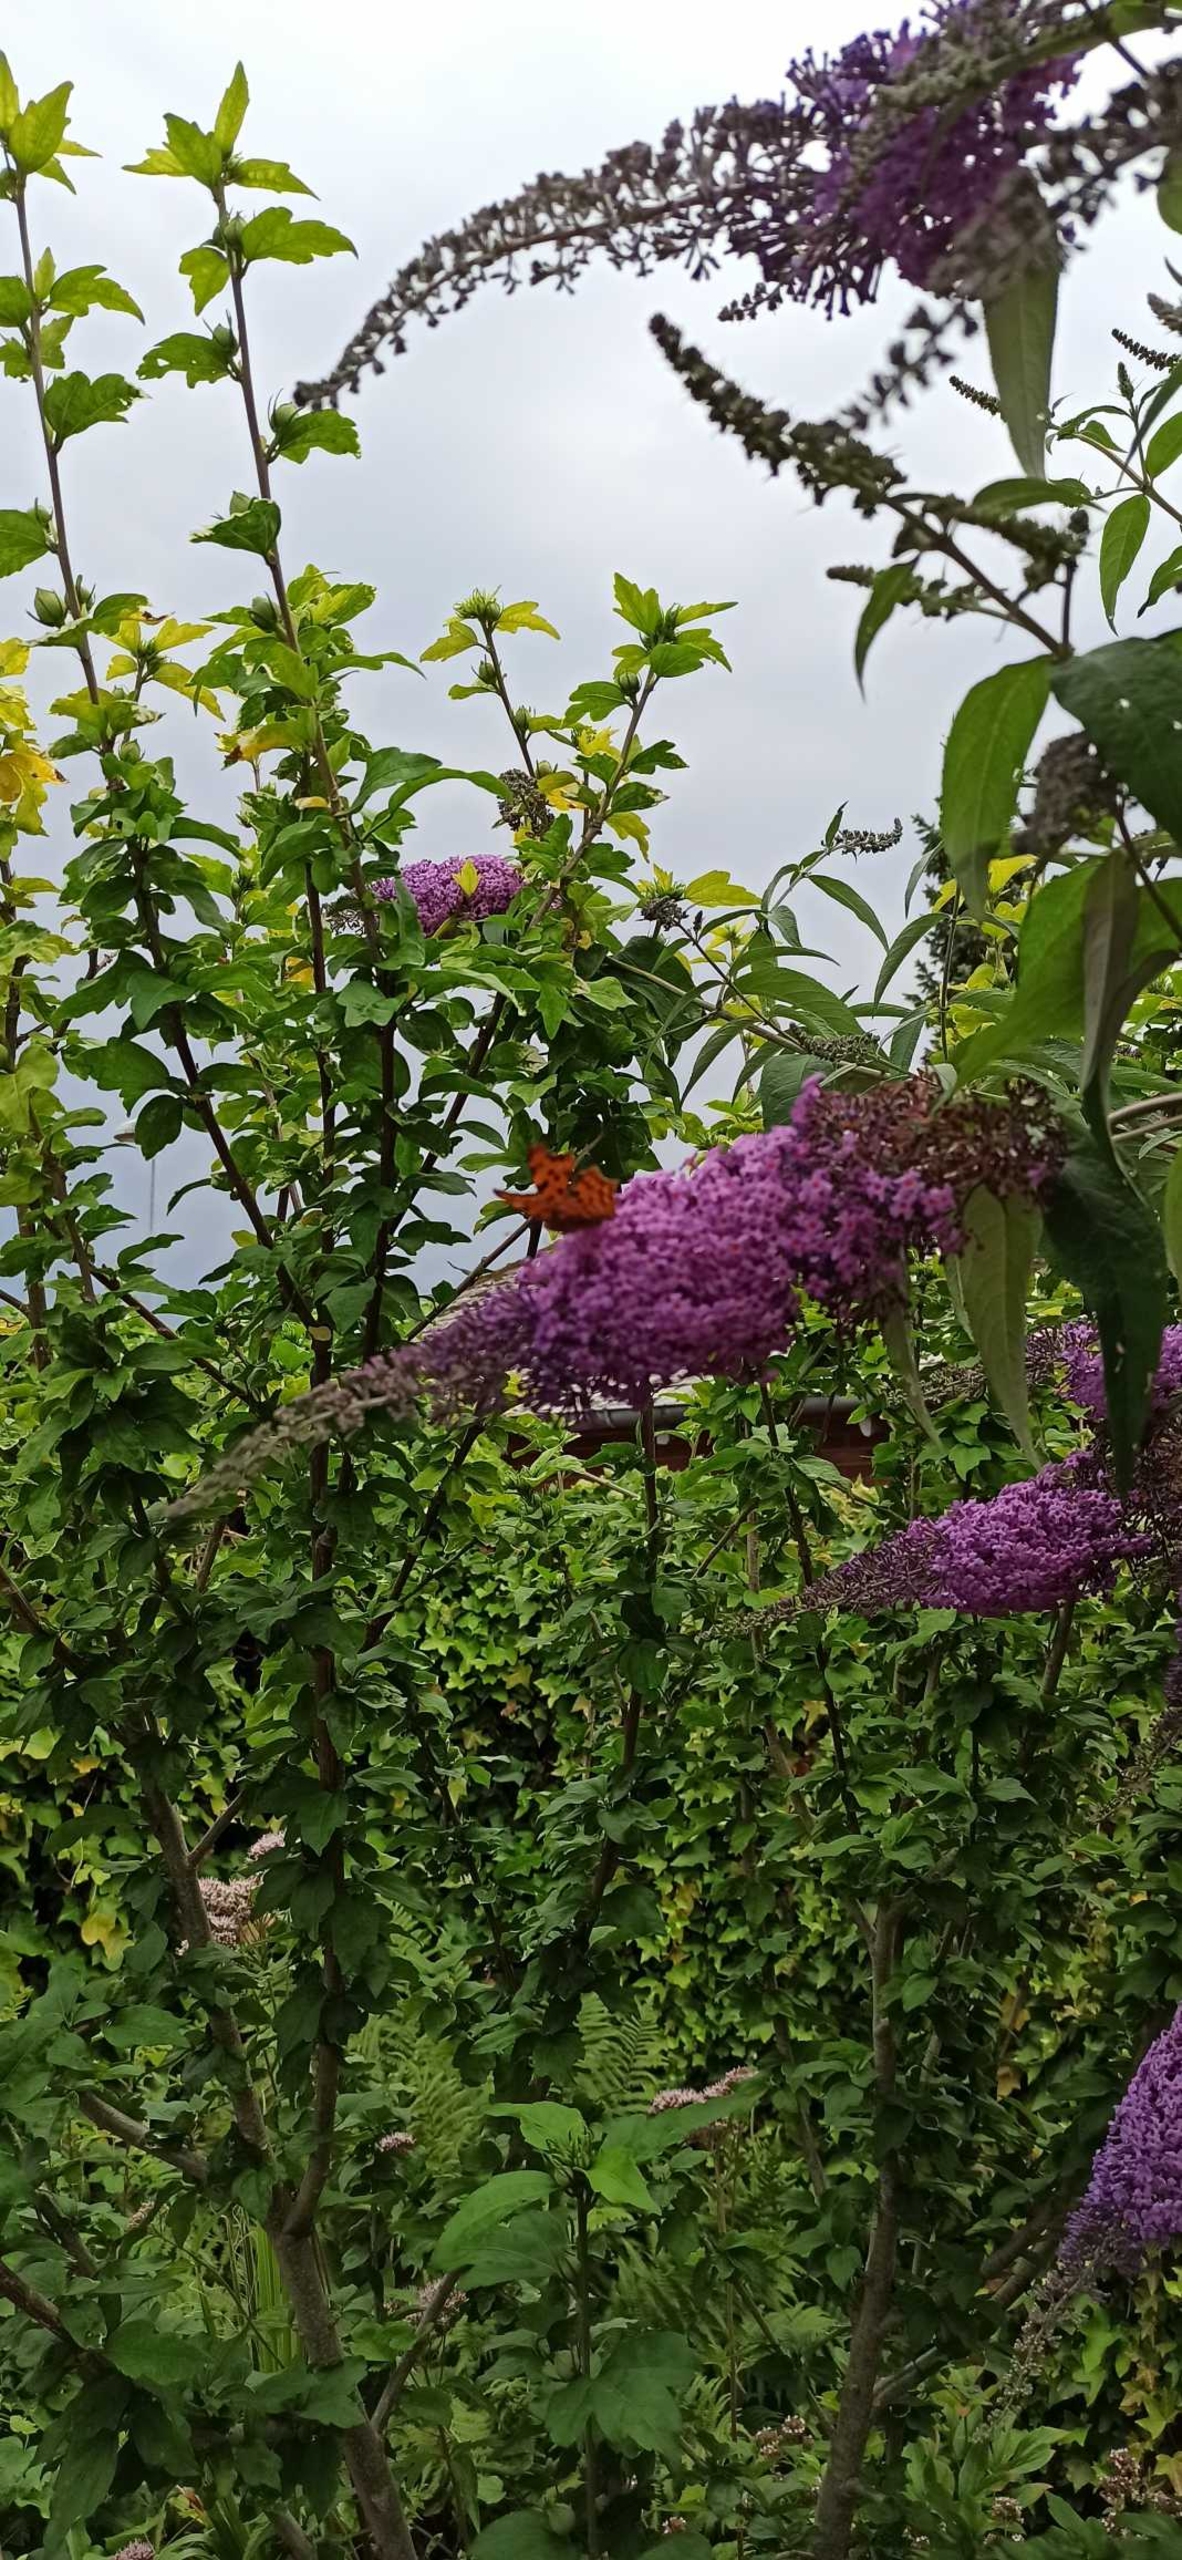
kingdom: Animalia
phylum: Arthropoda
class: Insecta
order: Lepidoptera
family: Nymphalidae
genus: Polygonia
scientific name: Polygonia c-album
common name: Det hvide C
